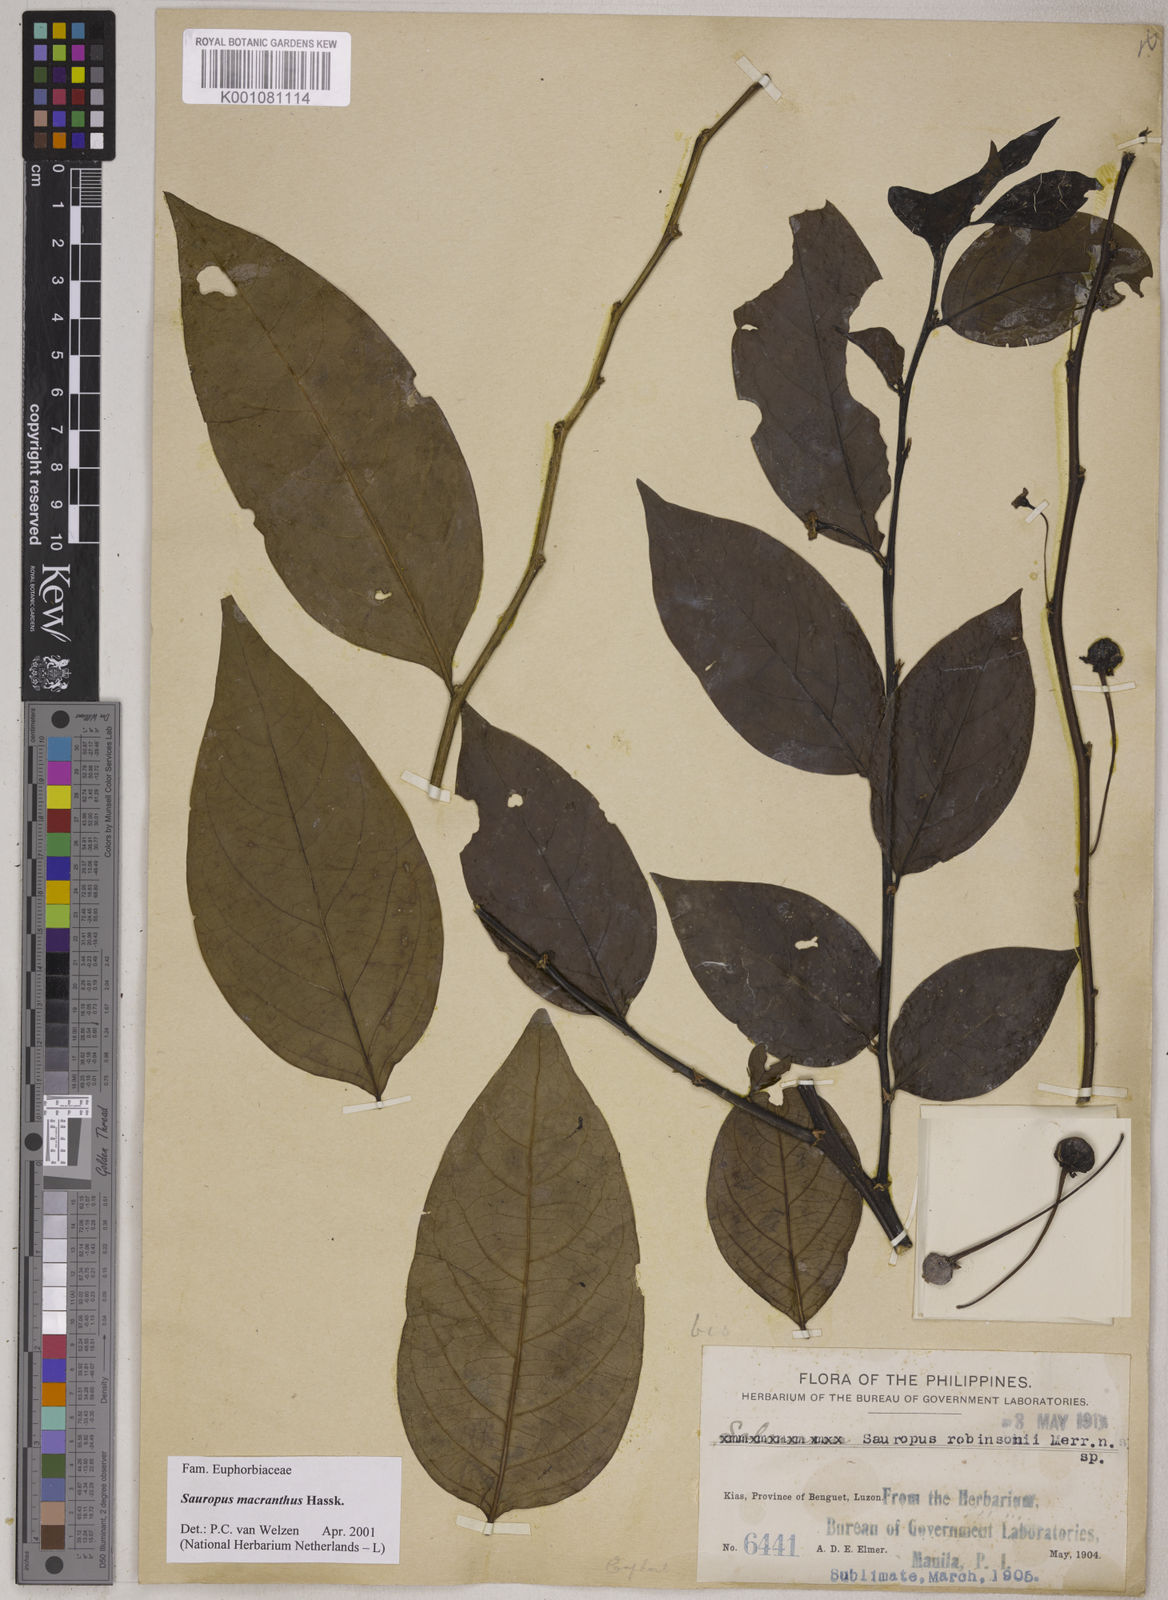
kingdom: Plantae
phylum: Tracheophyta
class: Magnoliopsida
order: Malpighiales
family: Phyllanthaceae
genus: Breynia
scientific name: Breynia macrantha
